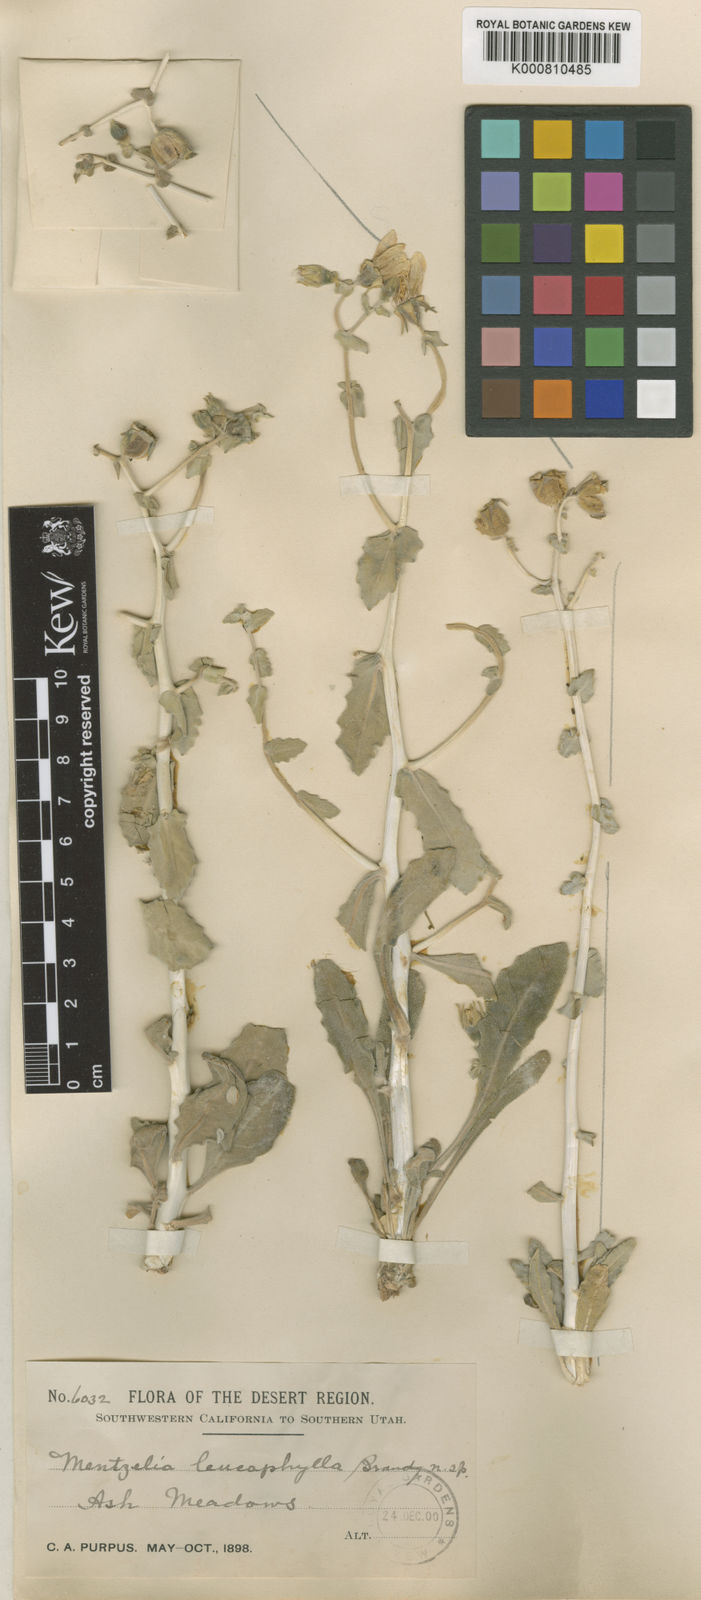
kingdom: Plantae
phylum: Tracheophyta
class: Magnoliopsida
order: Cornales
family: Loasaceae
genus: Mentzelia
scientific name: Mentzelia leucophylla
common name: Ash meadows blazingstar
